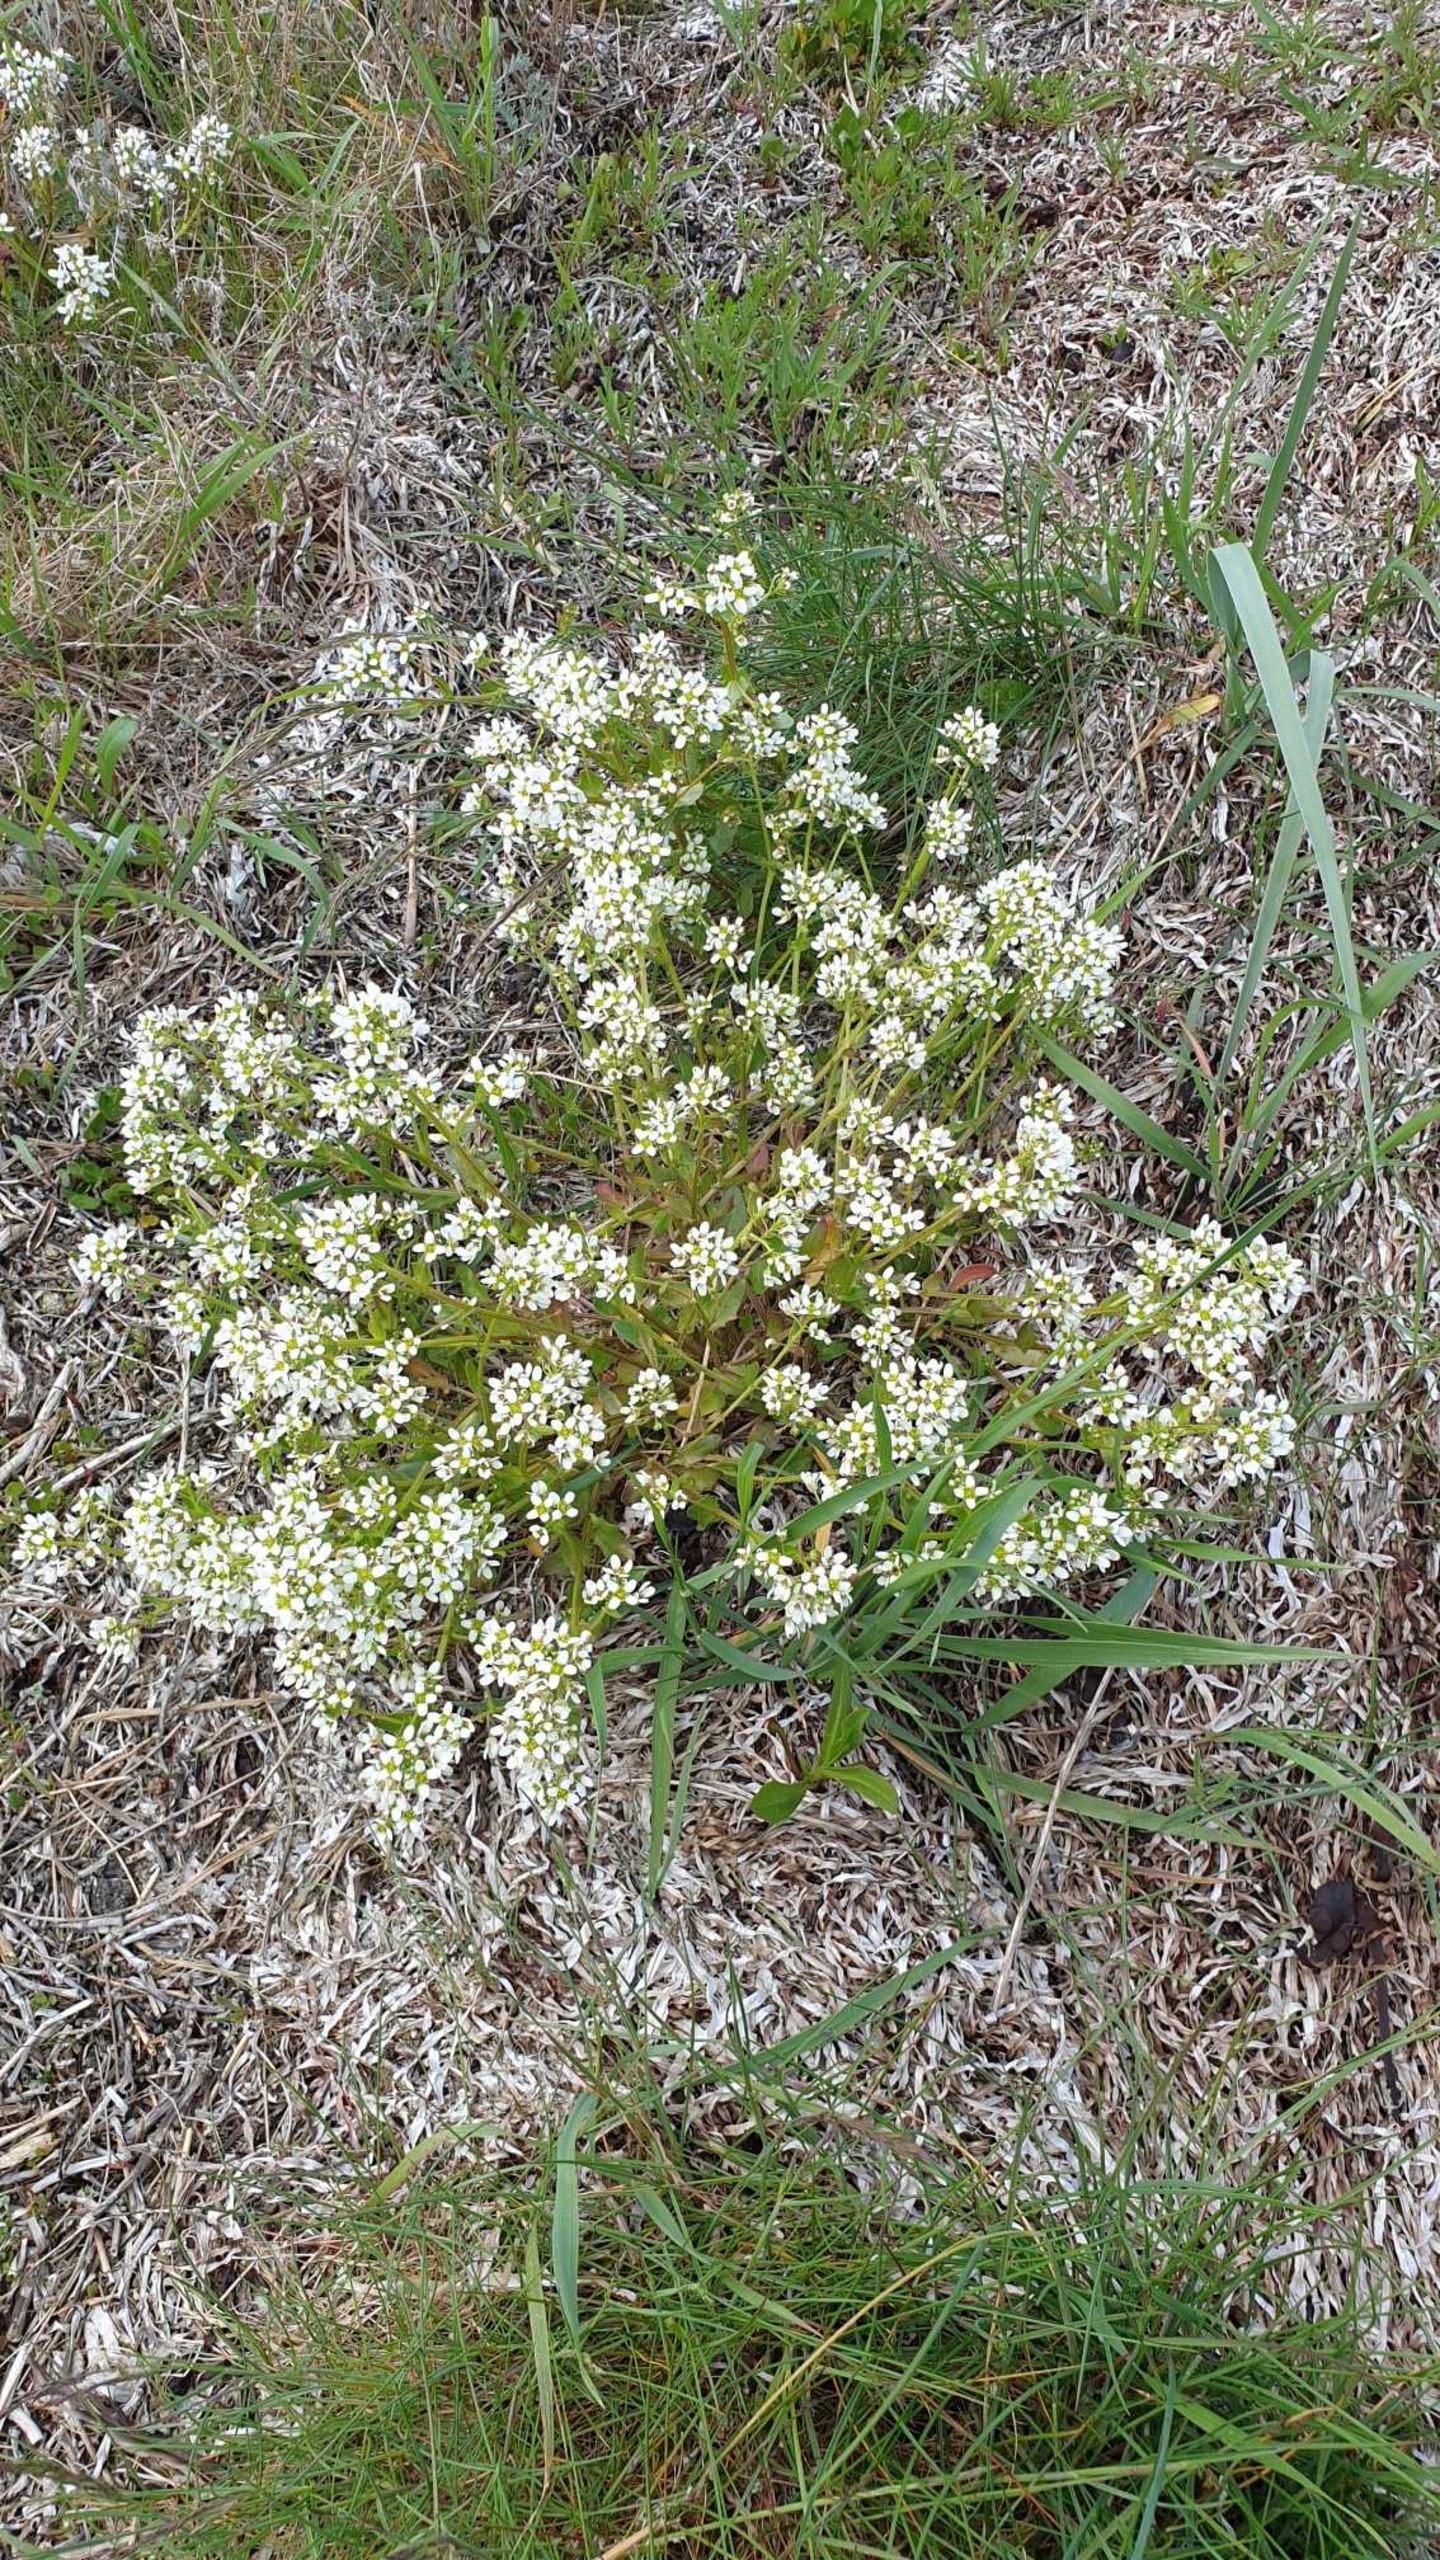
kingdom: Plantae
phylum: Tracheophyta
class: Magnoliopsida
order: Brassicales
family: Brassicaceae
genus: Cochlearia
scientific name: Cochlearia officinalis
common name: Læge-kokleare (underart)
